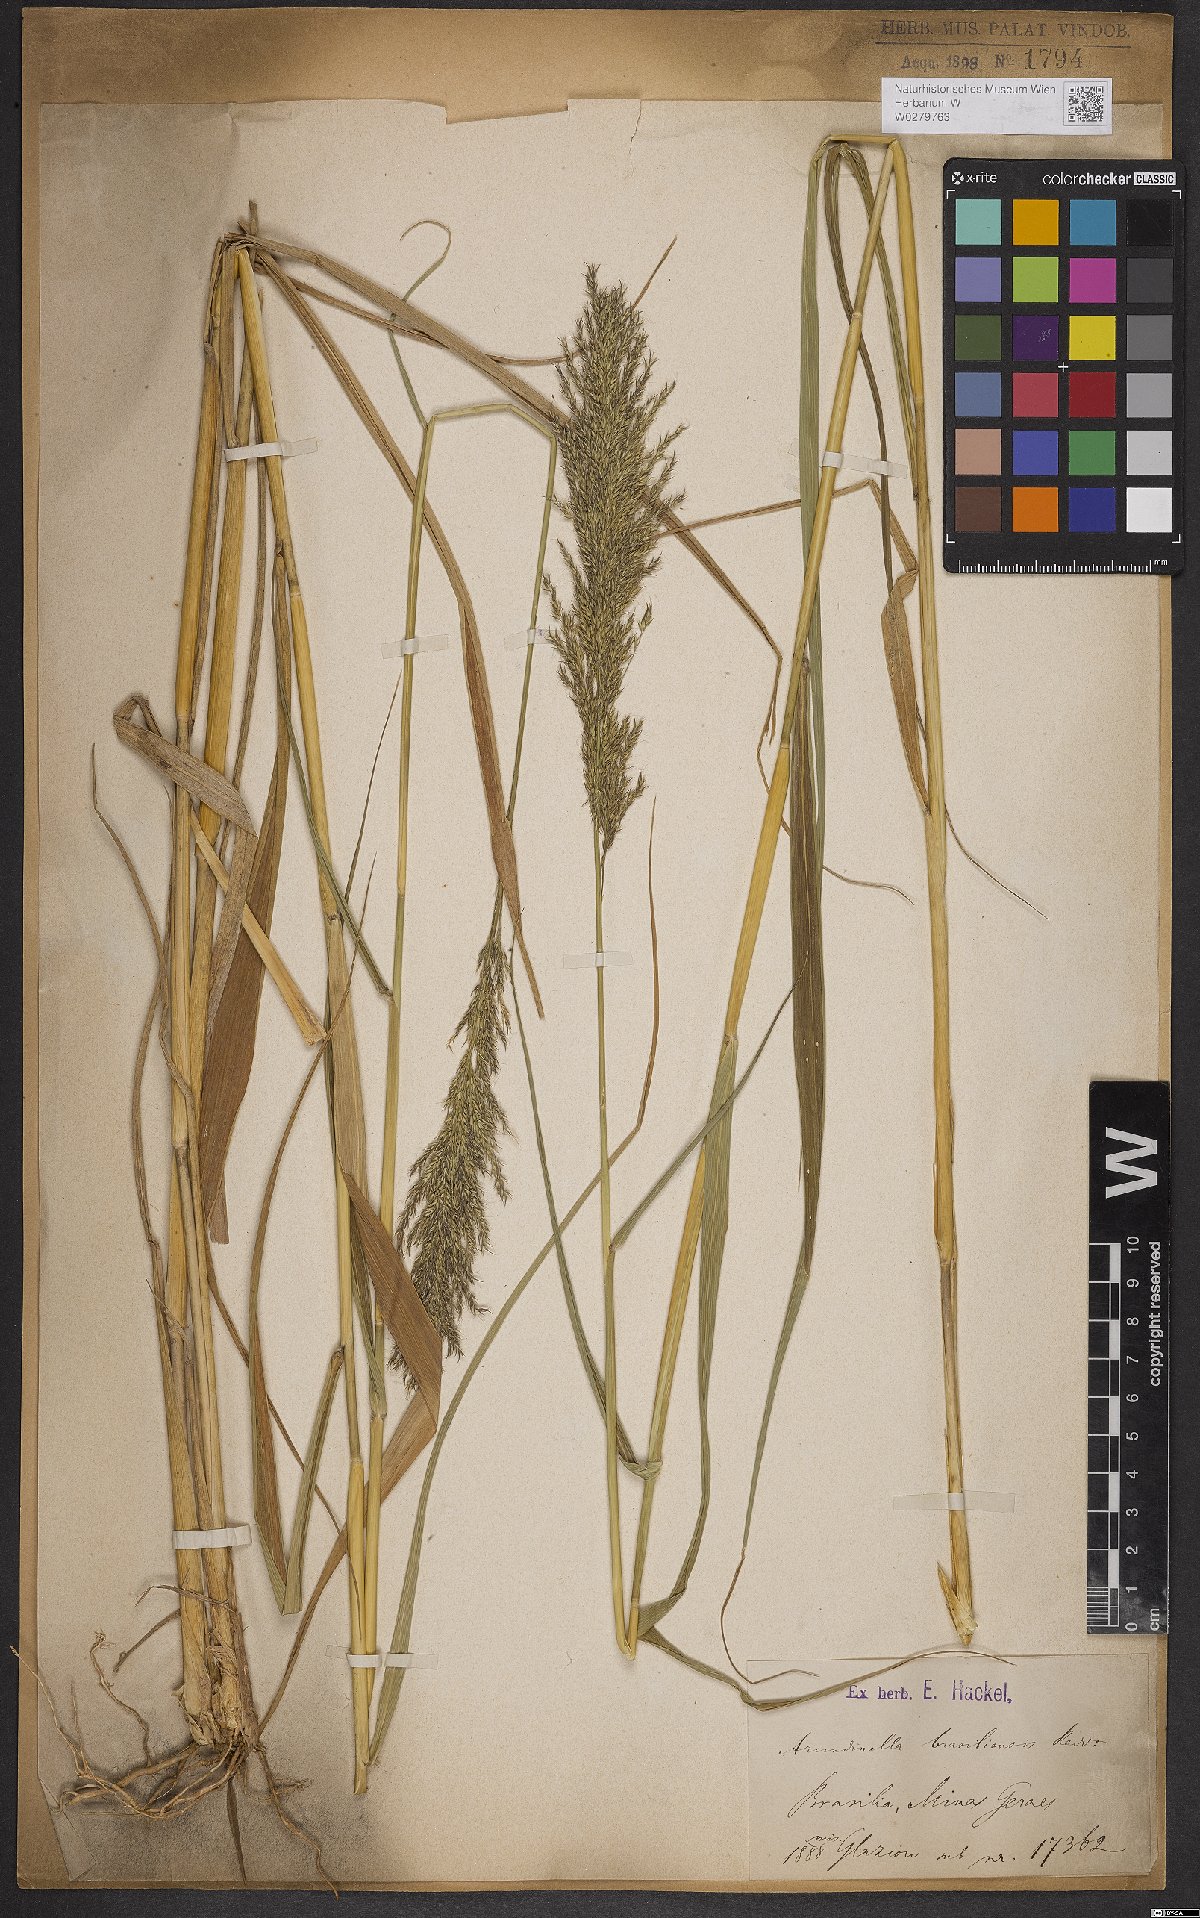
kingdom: Plantae
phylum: Tracheophyta
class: Liliopsida
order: Poales
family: Poaceae
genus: Arundinella
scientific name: Arundinella hispida
